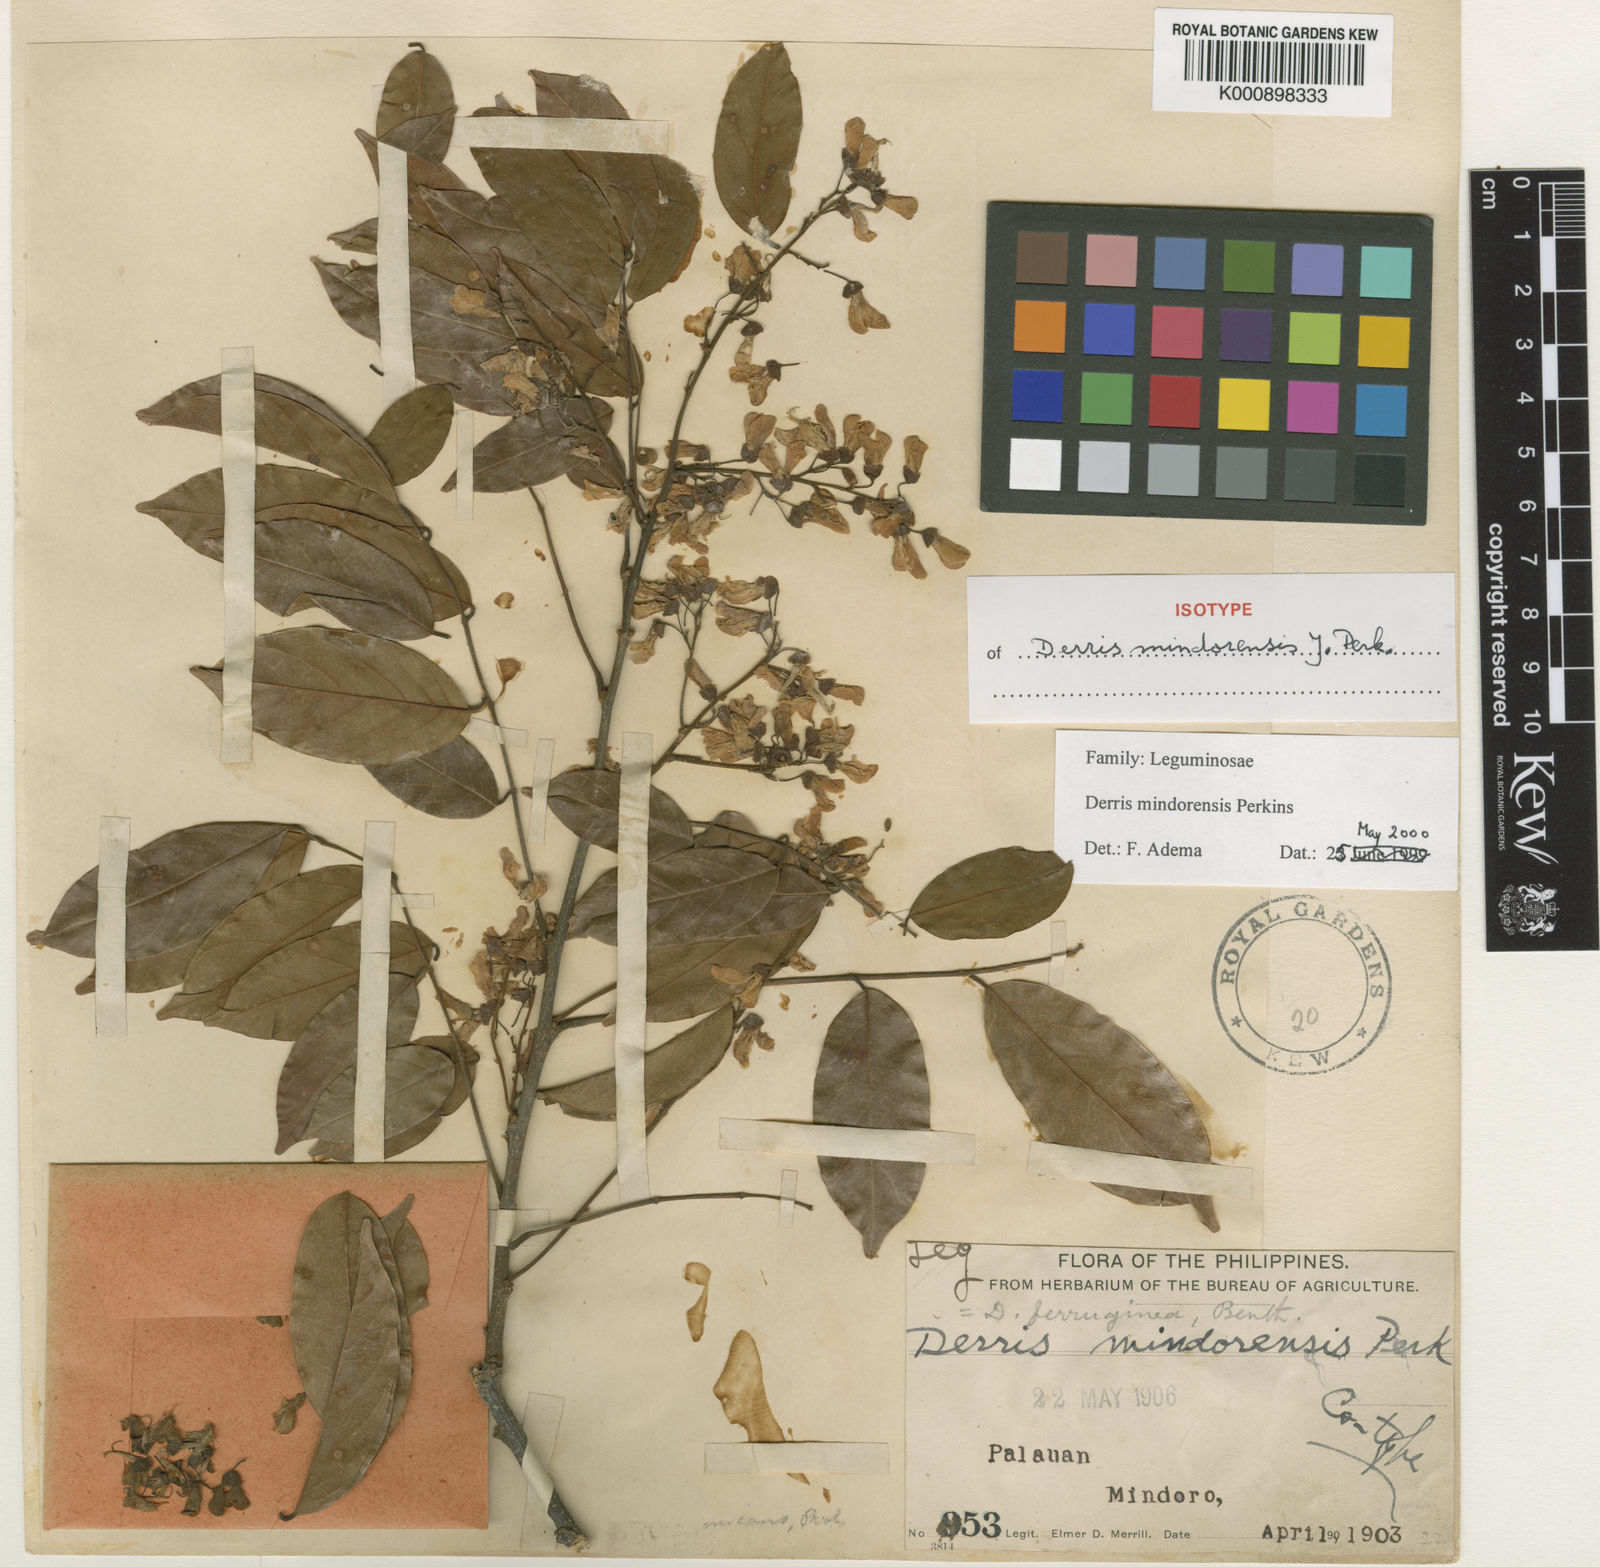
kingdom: Plantae
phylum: Tracheophyta
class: Magnoliopsida
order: Fabales
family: Fabaceae
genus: Derris
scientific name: Derris pubipetala
